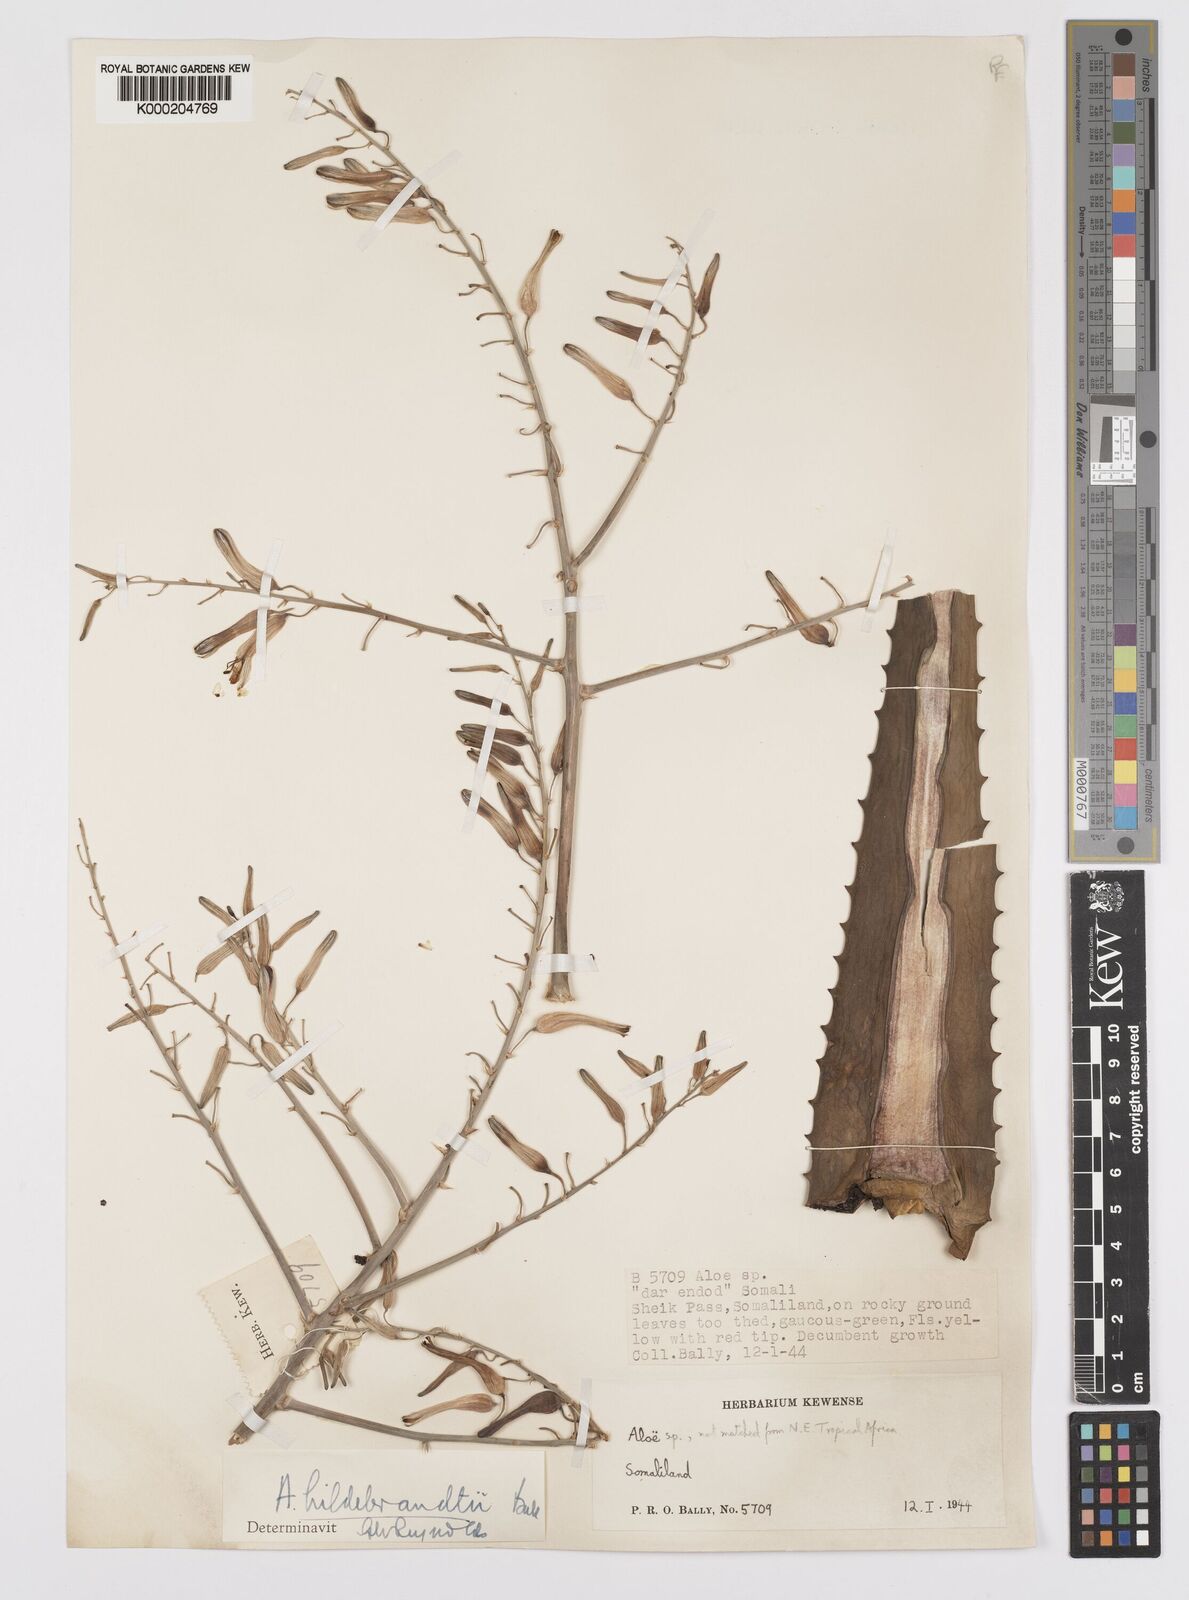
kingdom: Plantae
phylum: Tracheophyta
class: Liliopsida
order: Asparagales
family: Asphodelaceae
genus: Aloe
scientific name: Aloe hildebrandtii
